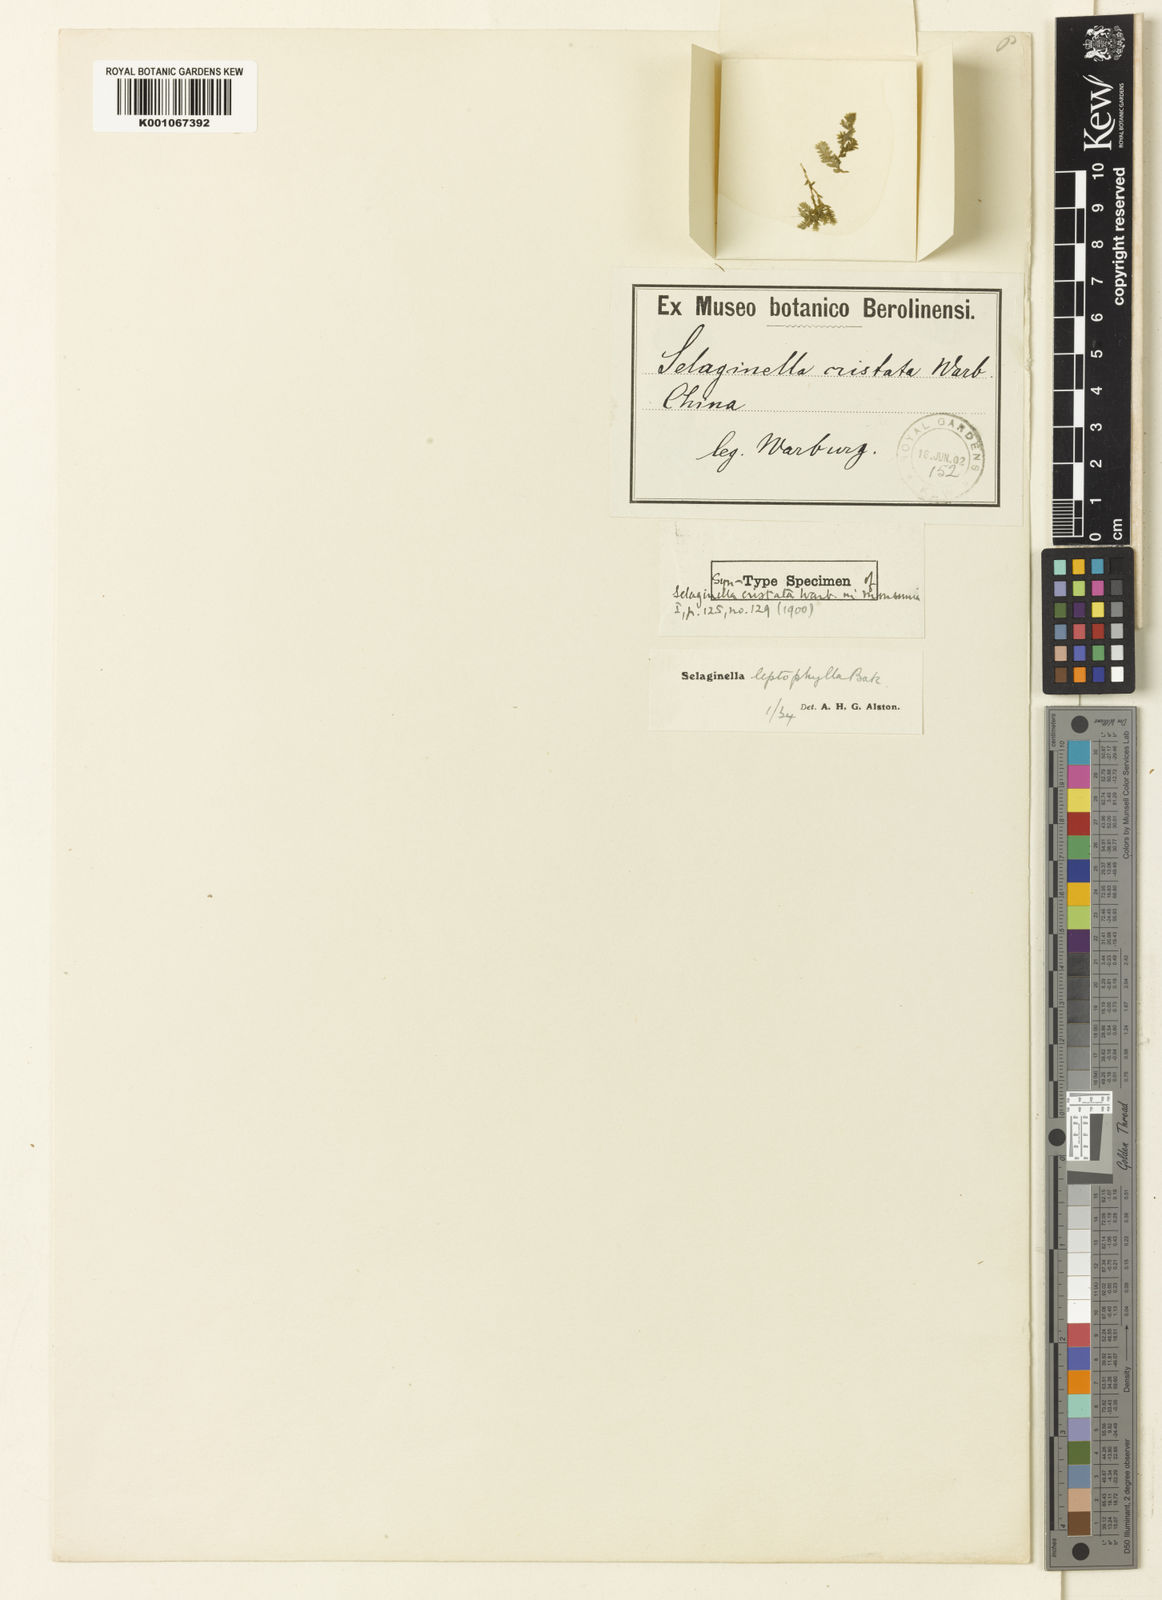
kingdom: Plantae
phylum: Tracheophyta
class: Lycopodiopsida
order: Selaginellales
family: Selaginellaceae
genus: Selaginella
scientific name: Selaginella leptophylla
